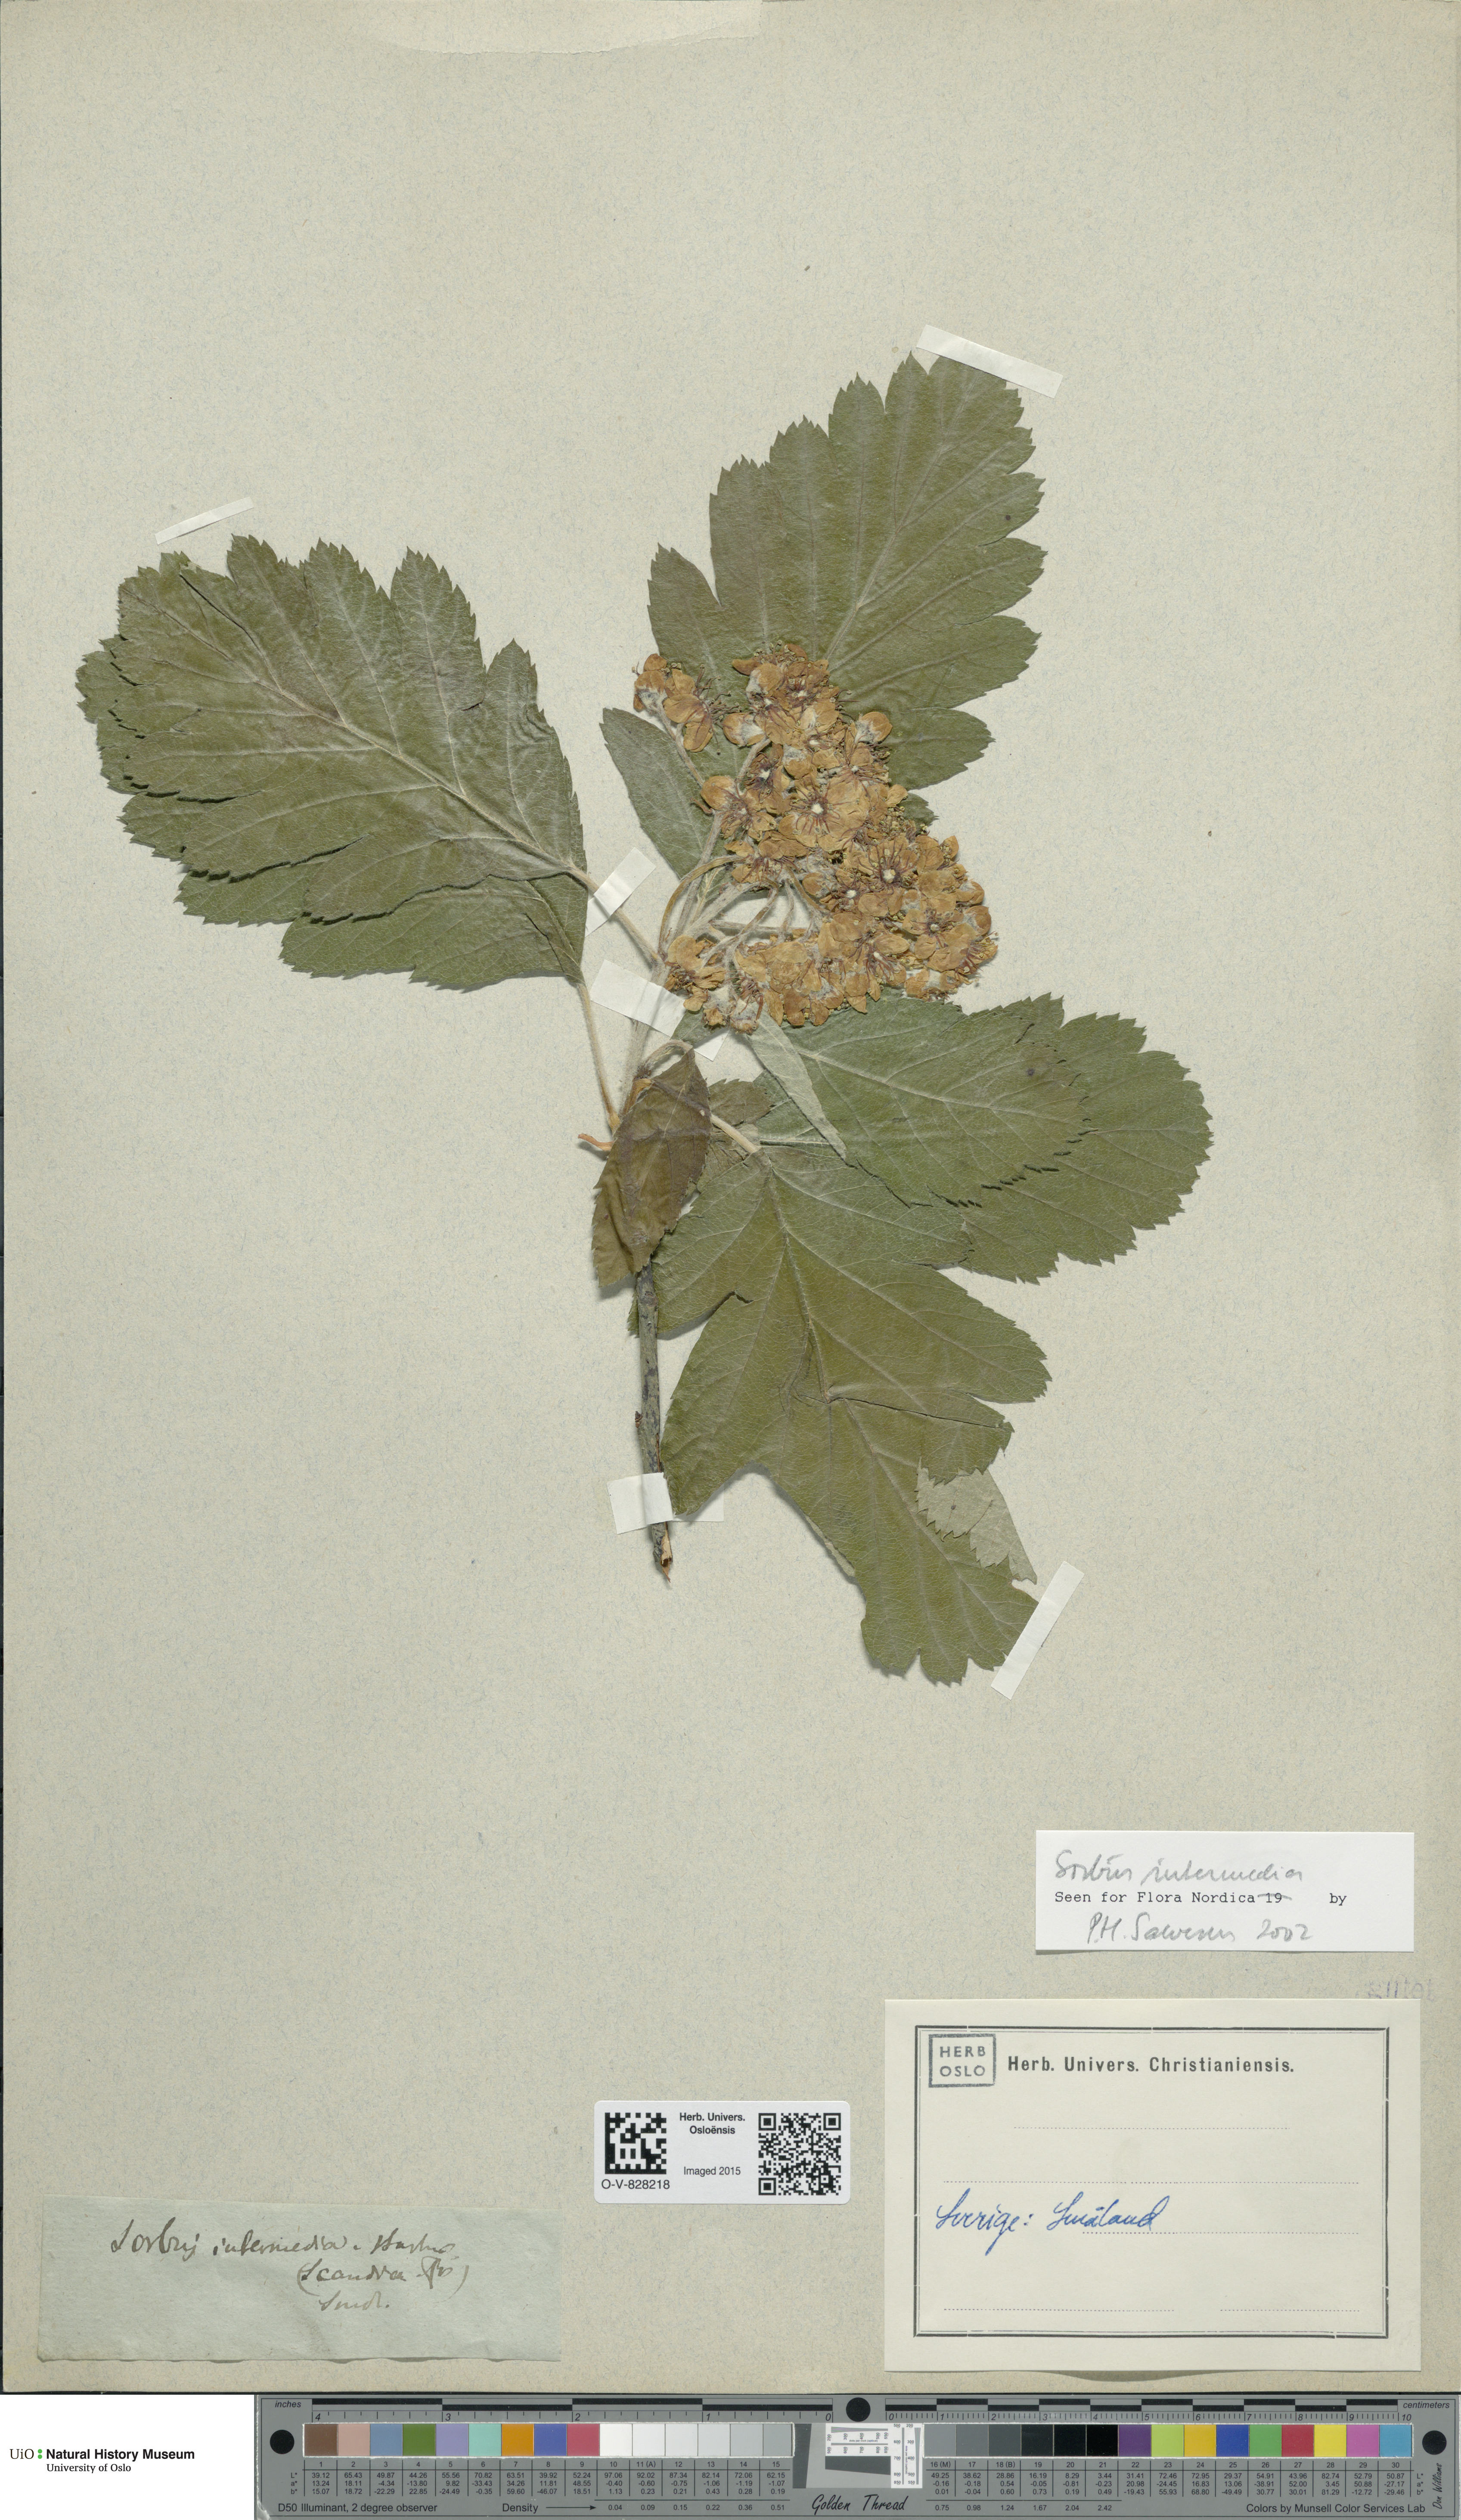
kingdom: Plantae
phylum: Tracheophyta
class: Magnoliopsida
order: Rosales
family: Rosaceae
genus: Scandosorbus
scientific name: Scandosorbus intermedia
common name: Swedish whitebeam
